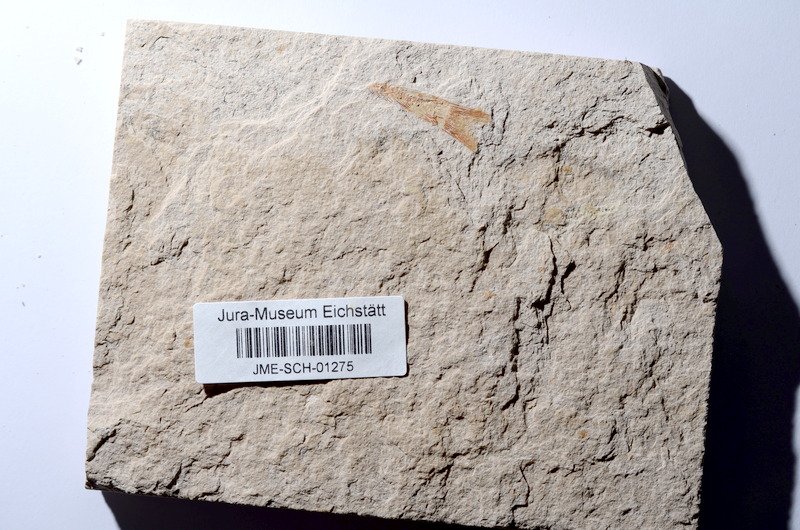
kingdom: Animalia
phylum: Chordata
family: Ascalaboidae
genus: Tharsis
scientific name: Tharsis dubius
